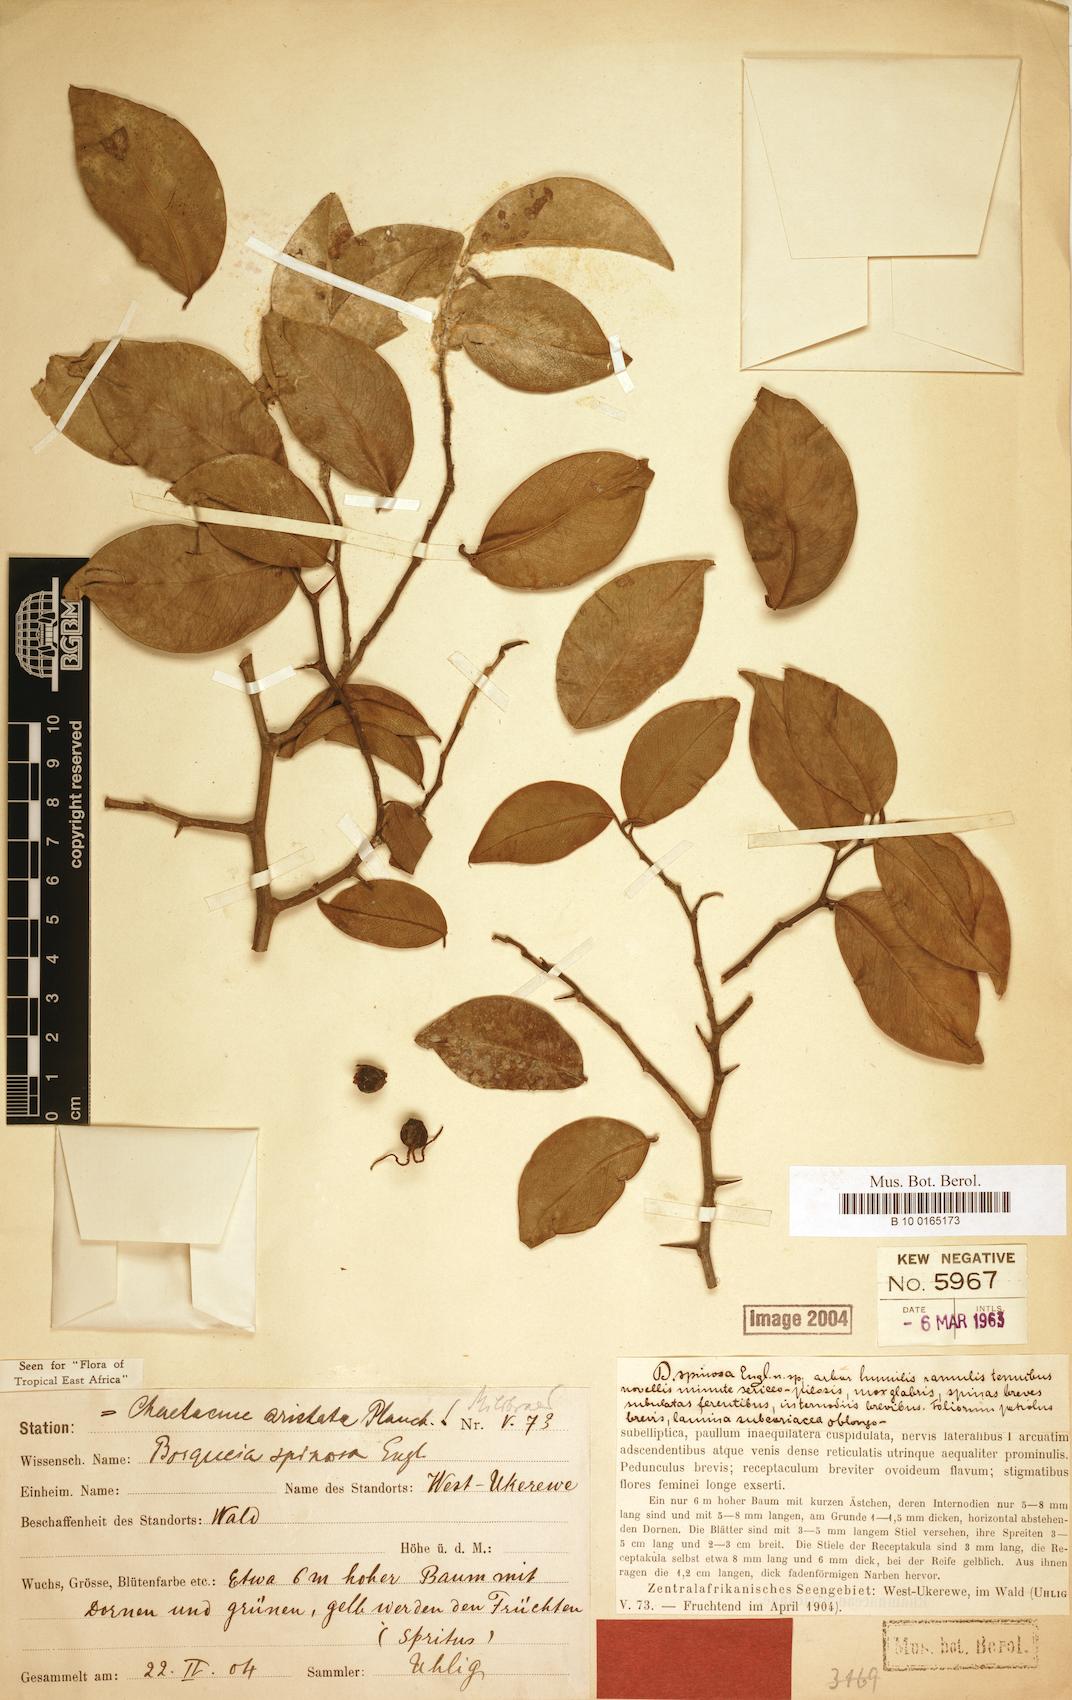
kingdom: Plantae
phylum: Tracheophyta
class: Magnoliopsida
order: Rosales
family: Cannabaceae
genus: Chaetacme
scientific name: Chaetacme
